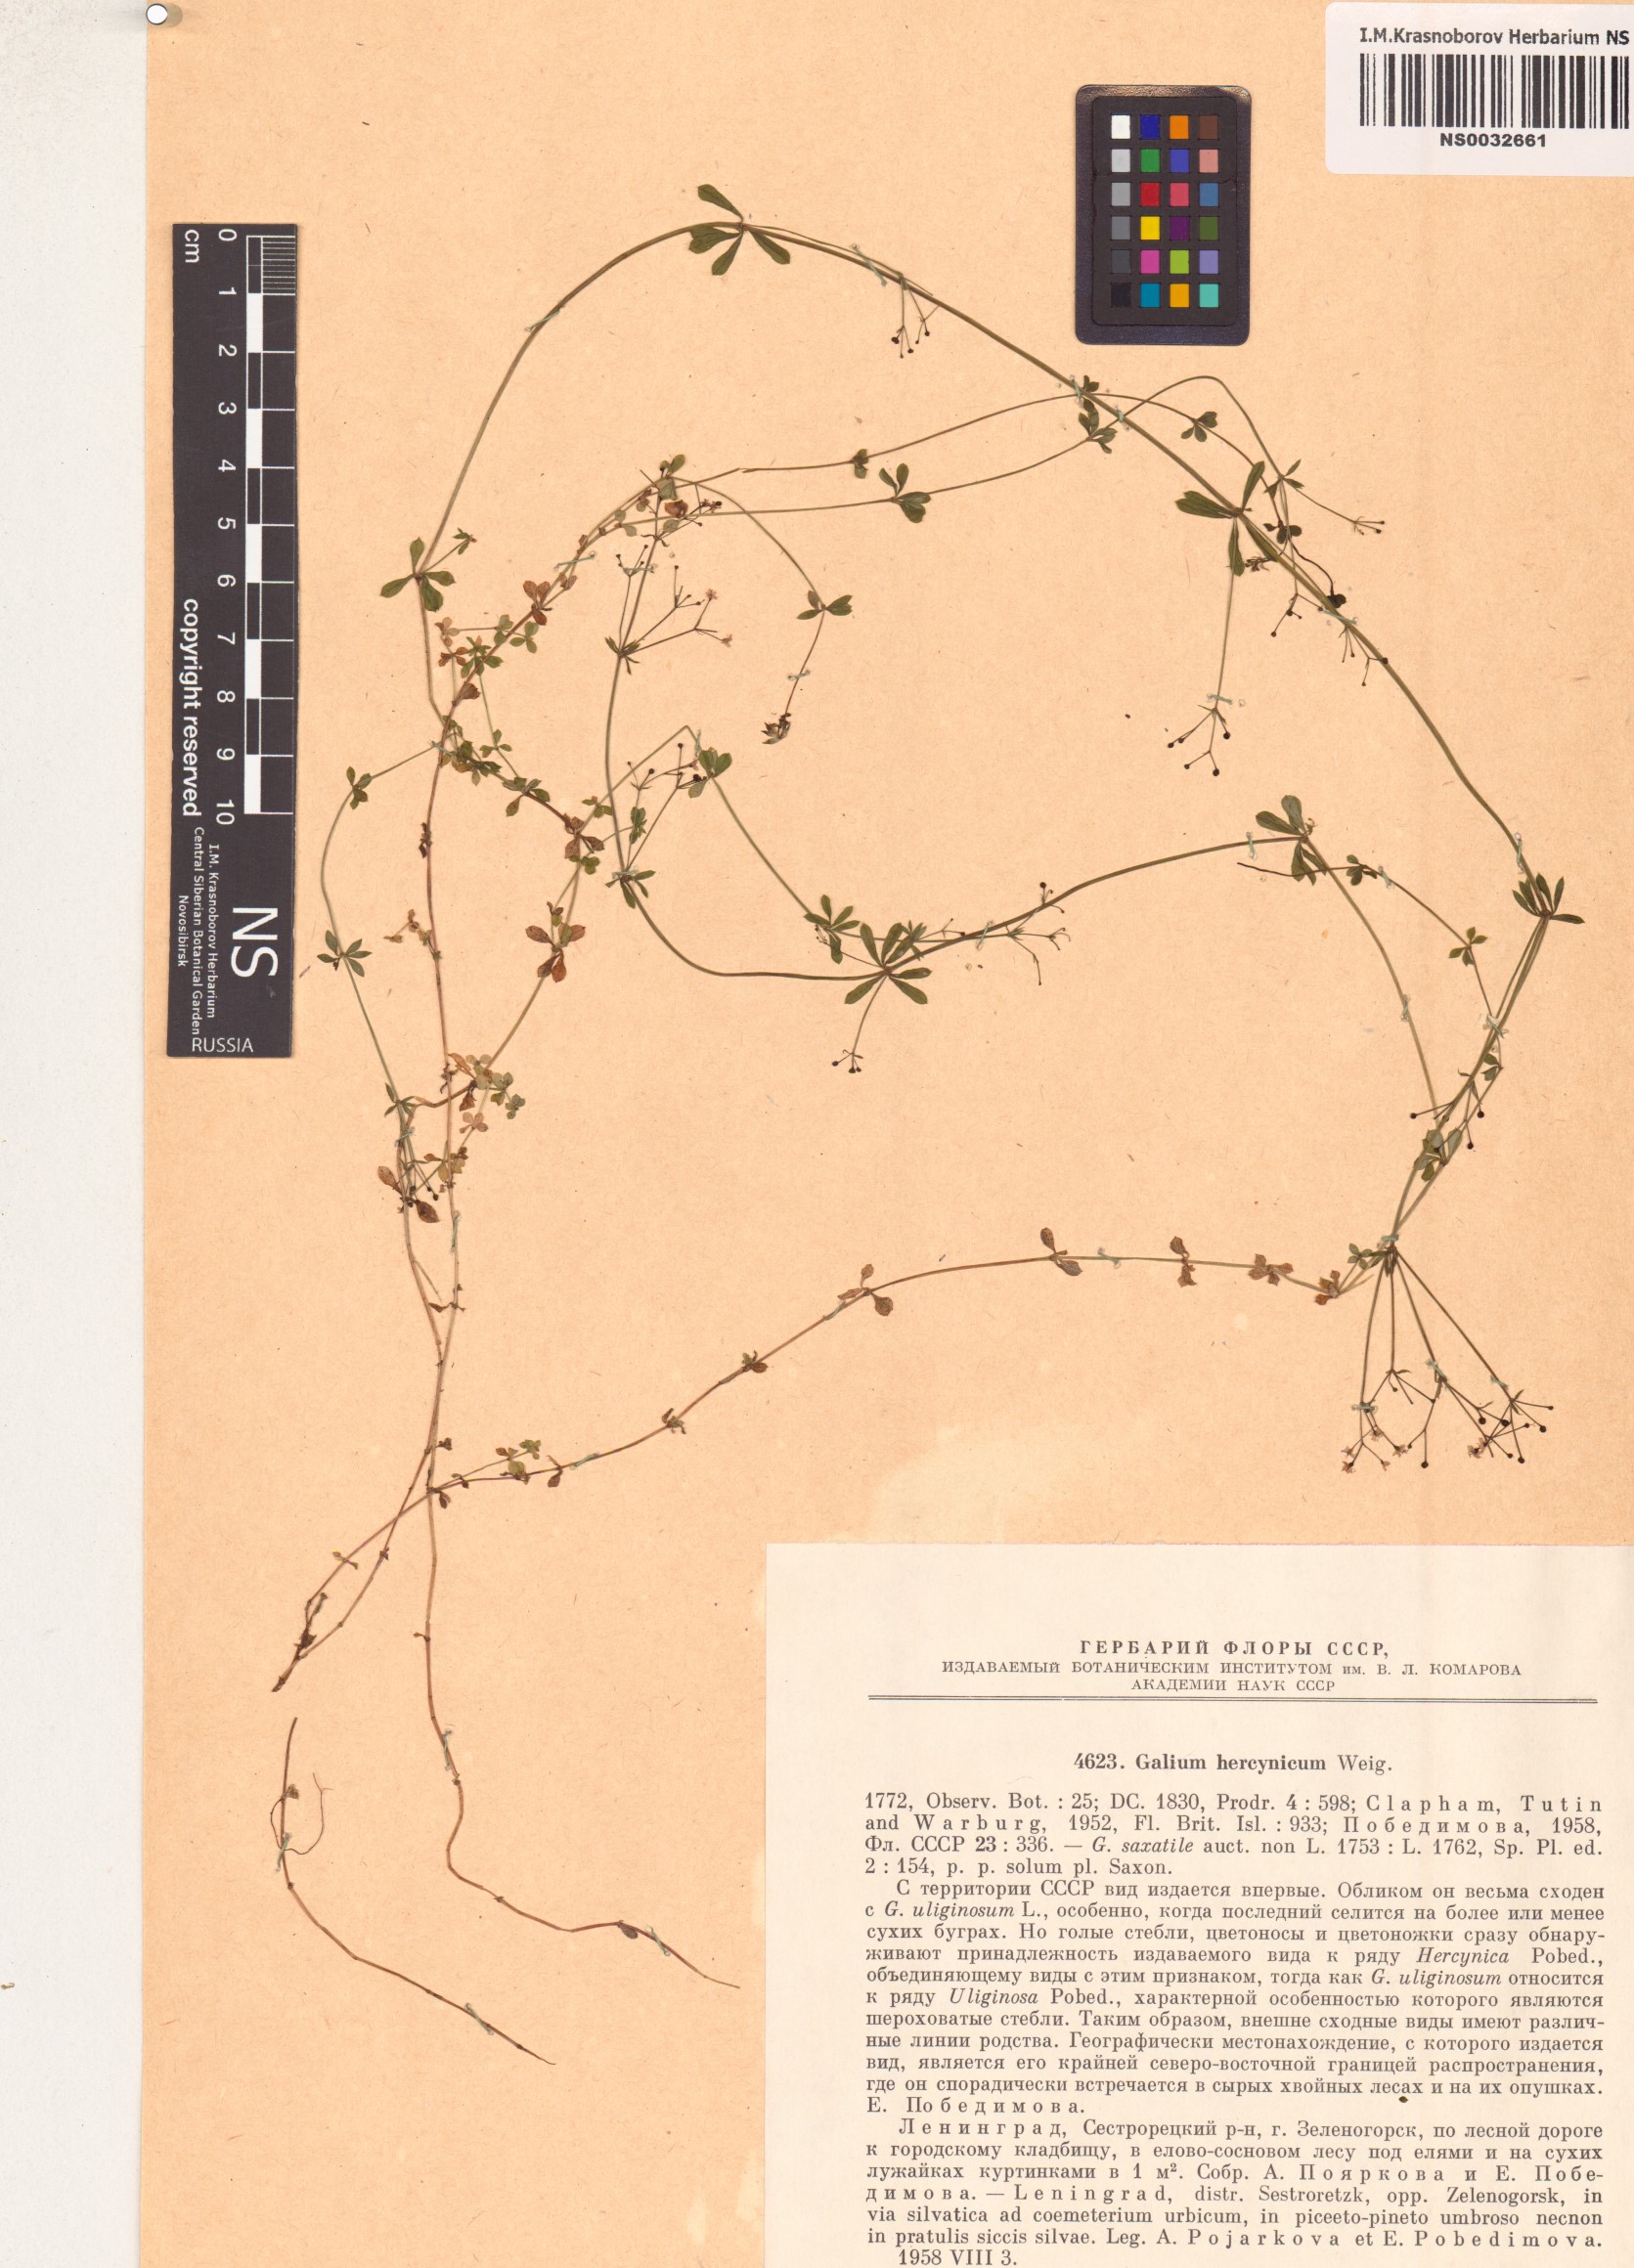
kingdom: Plantae
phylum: Tracheophyta
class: Magnoliopsida
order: Gentianales
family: Rubiaceae
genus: Galium
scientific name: Galium saxatile
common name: Heath bedstraw
